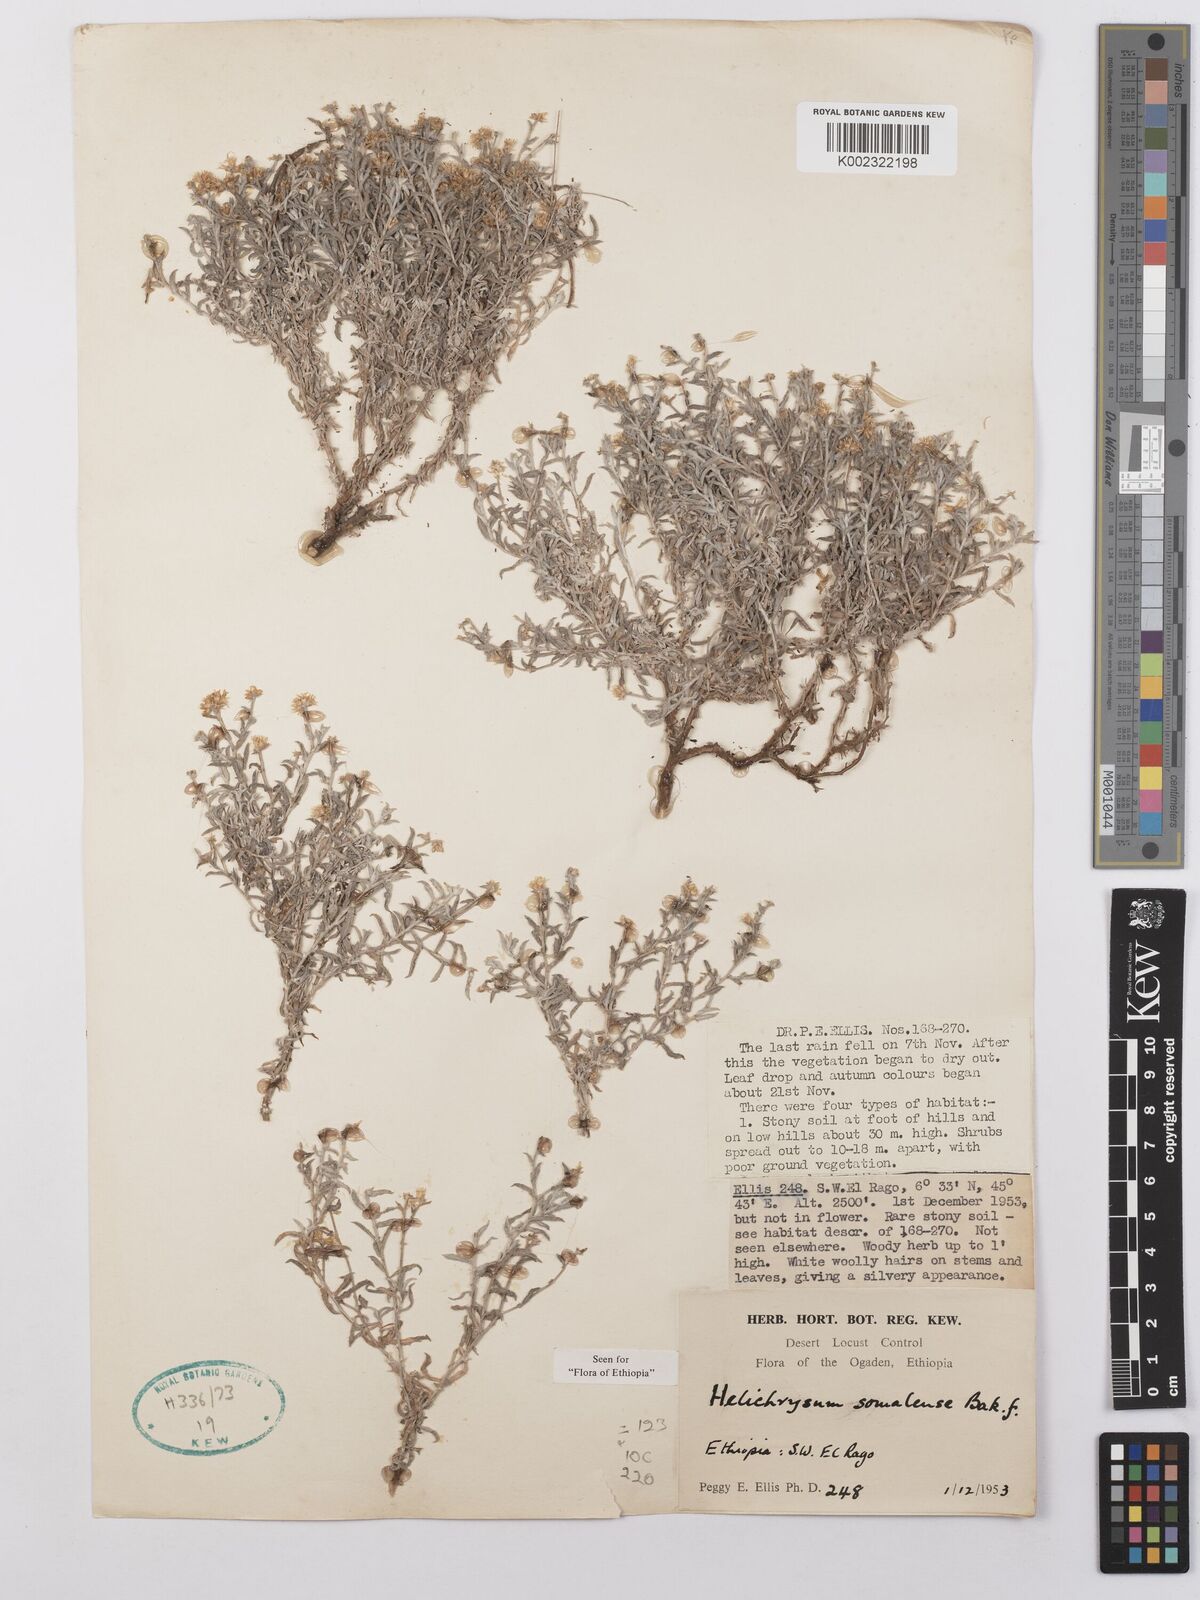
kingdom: Plantae
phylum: Tracheophyta
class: Magnoliopsida
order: Asterales
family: Asteraceae
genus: Helichrysum
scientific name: Helichrysum somalense
